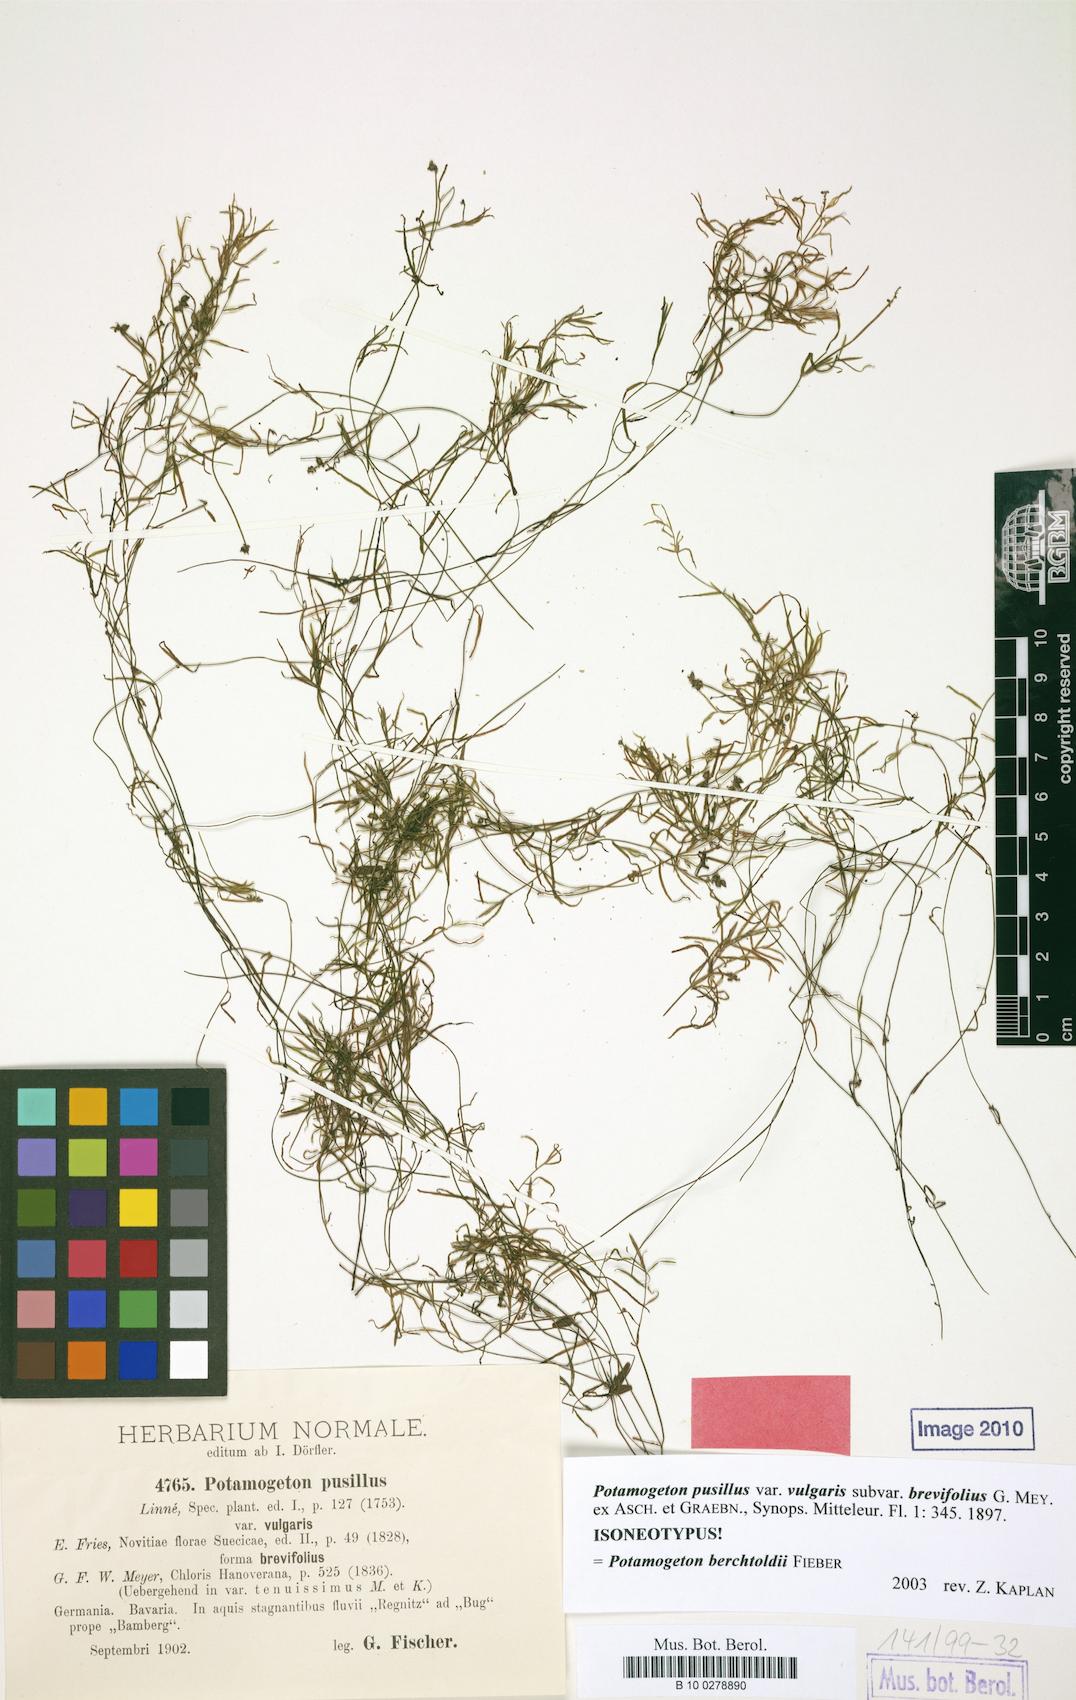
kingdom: Plantae
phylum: Tracheophyta
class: Liliopsida
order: Alismatales
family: Potamogetonaceae
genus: Potamogeton
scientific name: Potamogeton berchtoldii
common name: Small pondweed
